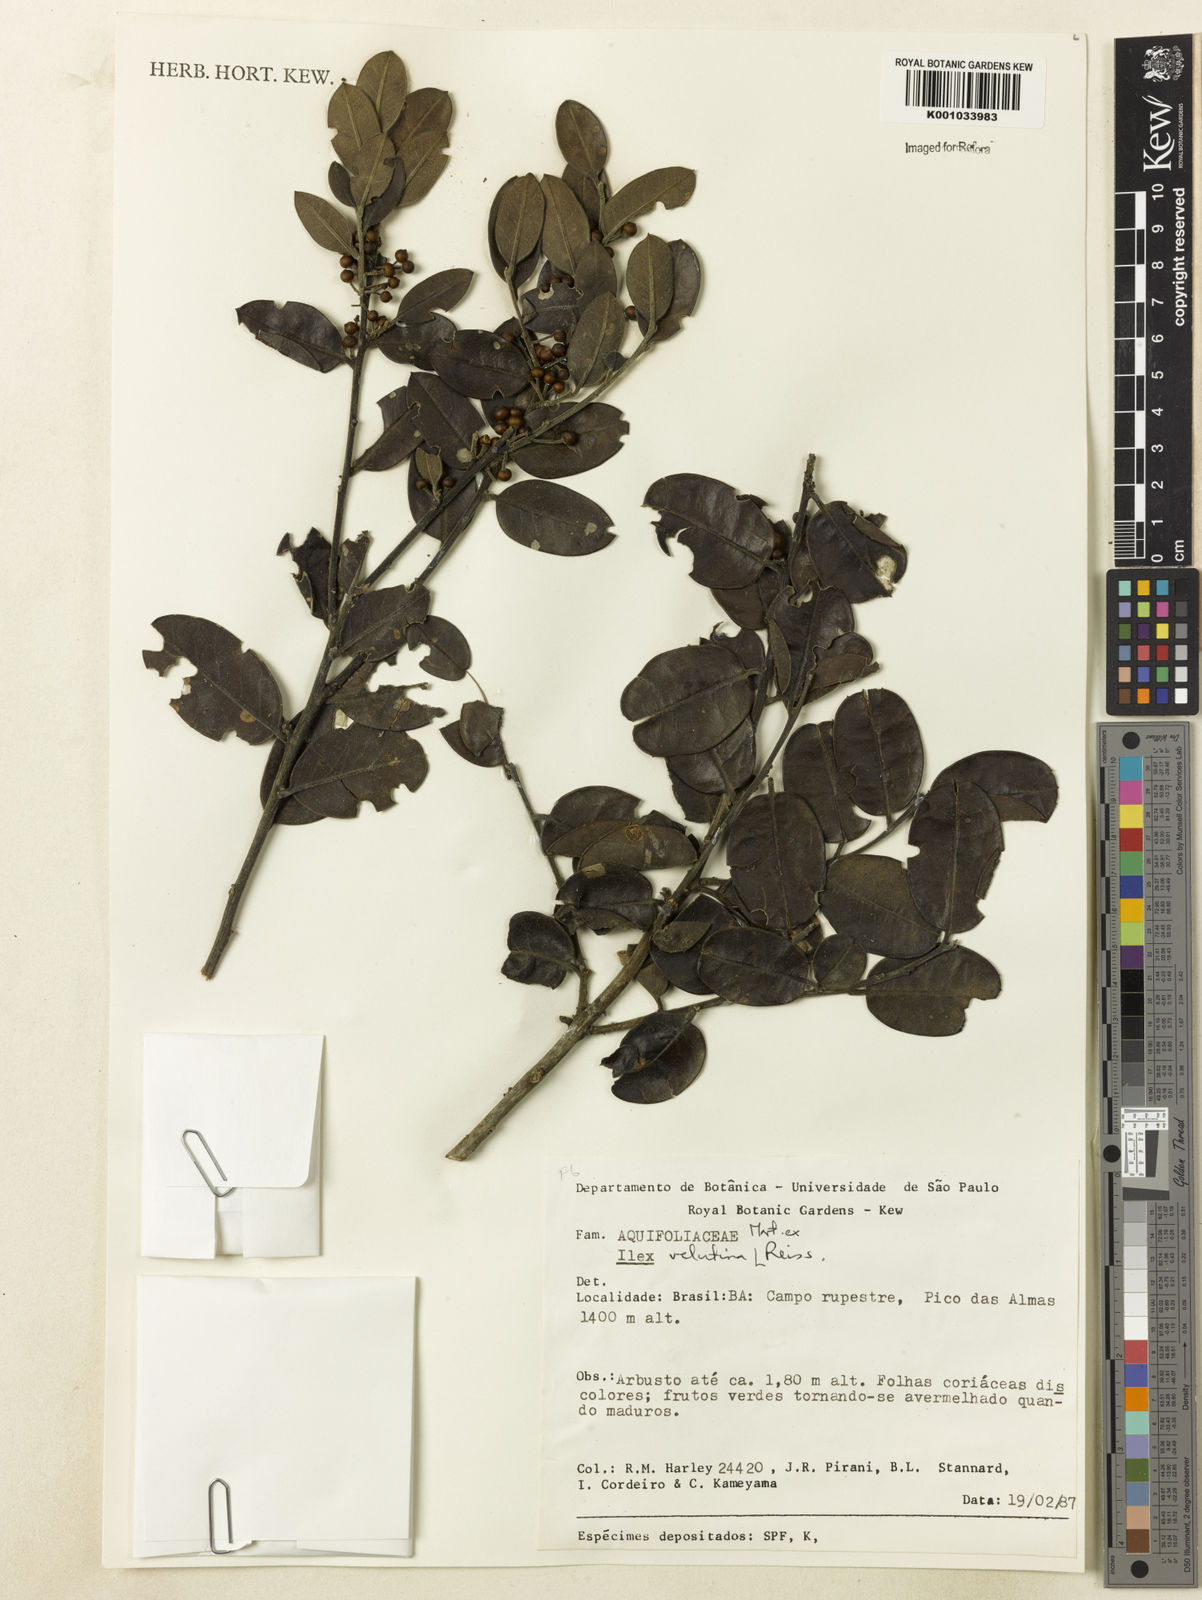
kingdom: Plantae
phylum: Tracheophyta
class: Magnoliopsida
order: Aquifoliales
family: Aquifoliaceae
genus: Ilex
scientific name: Ilex velutina
